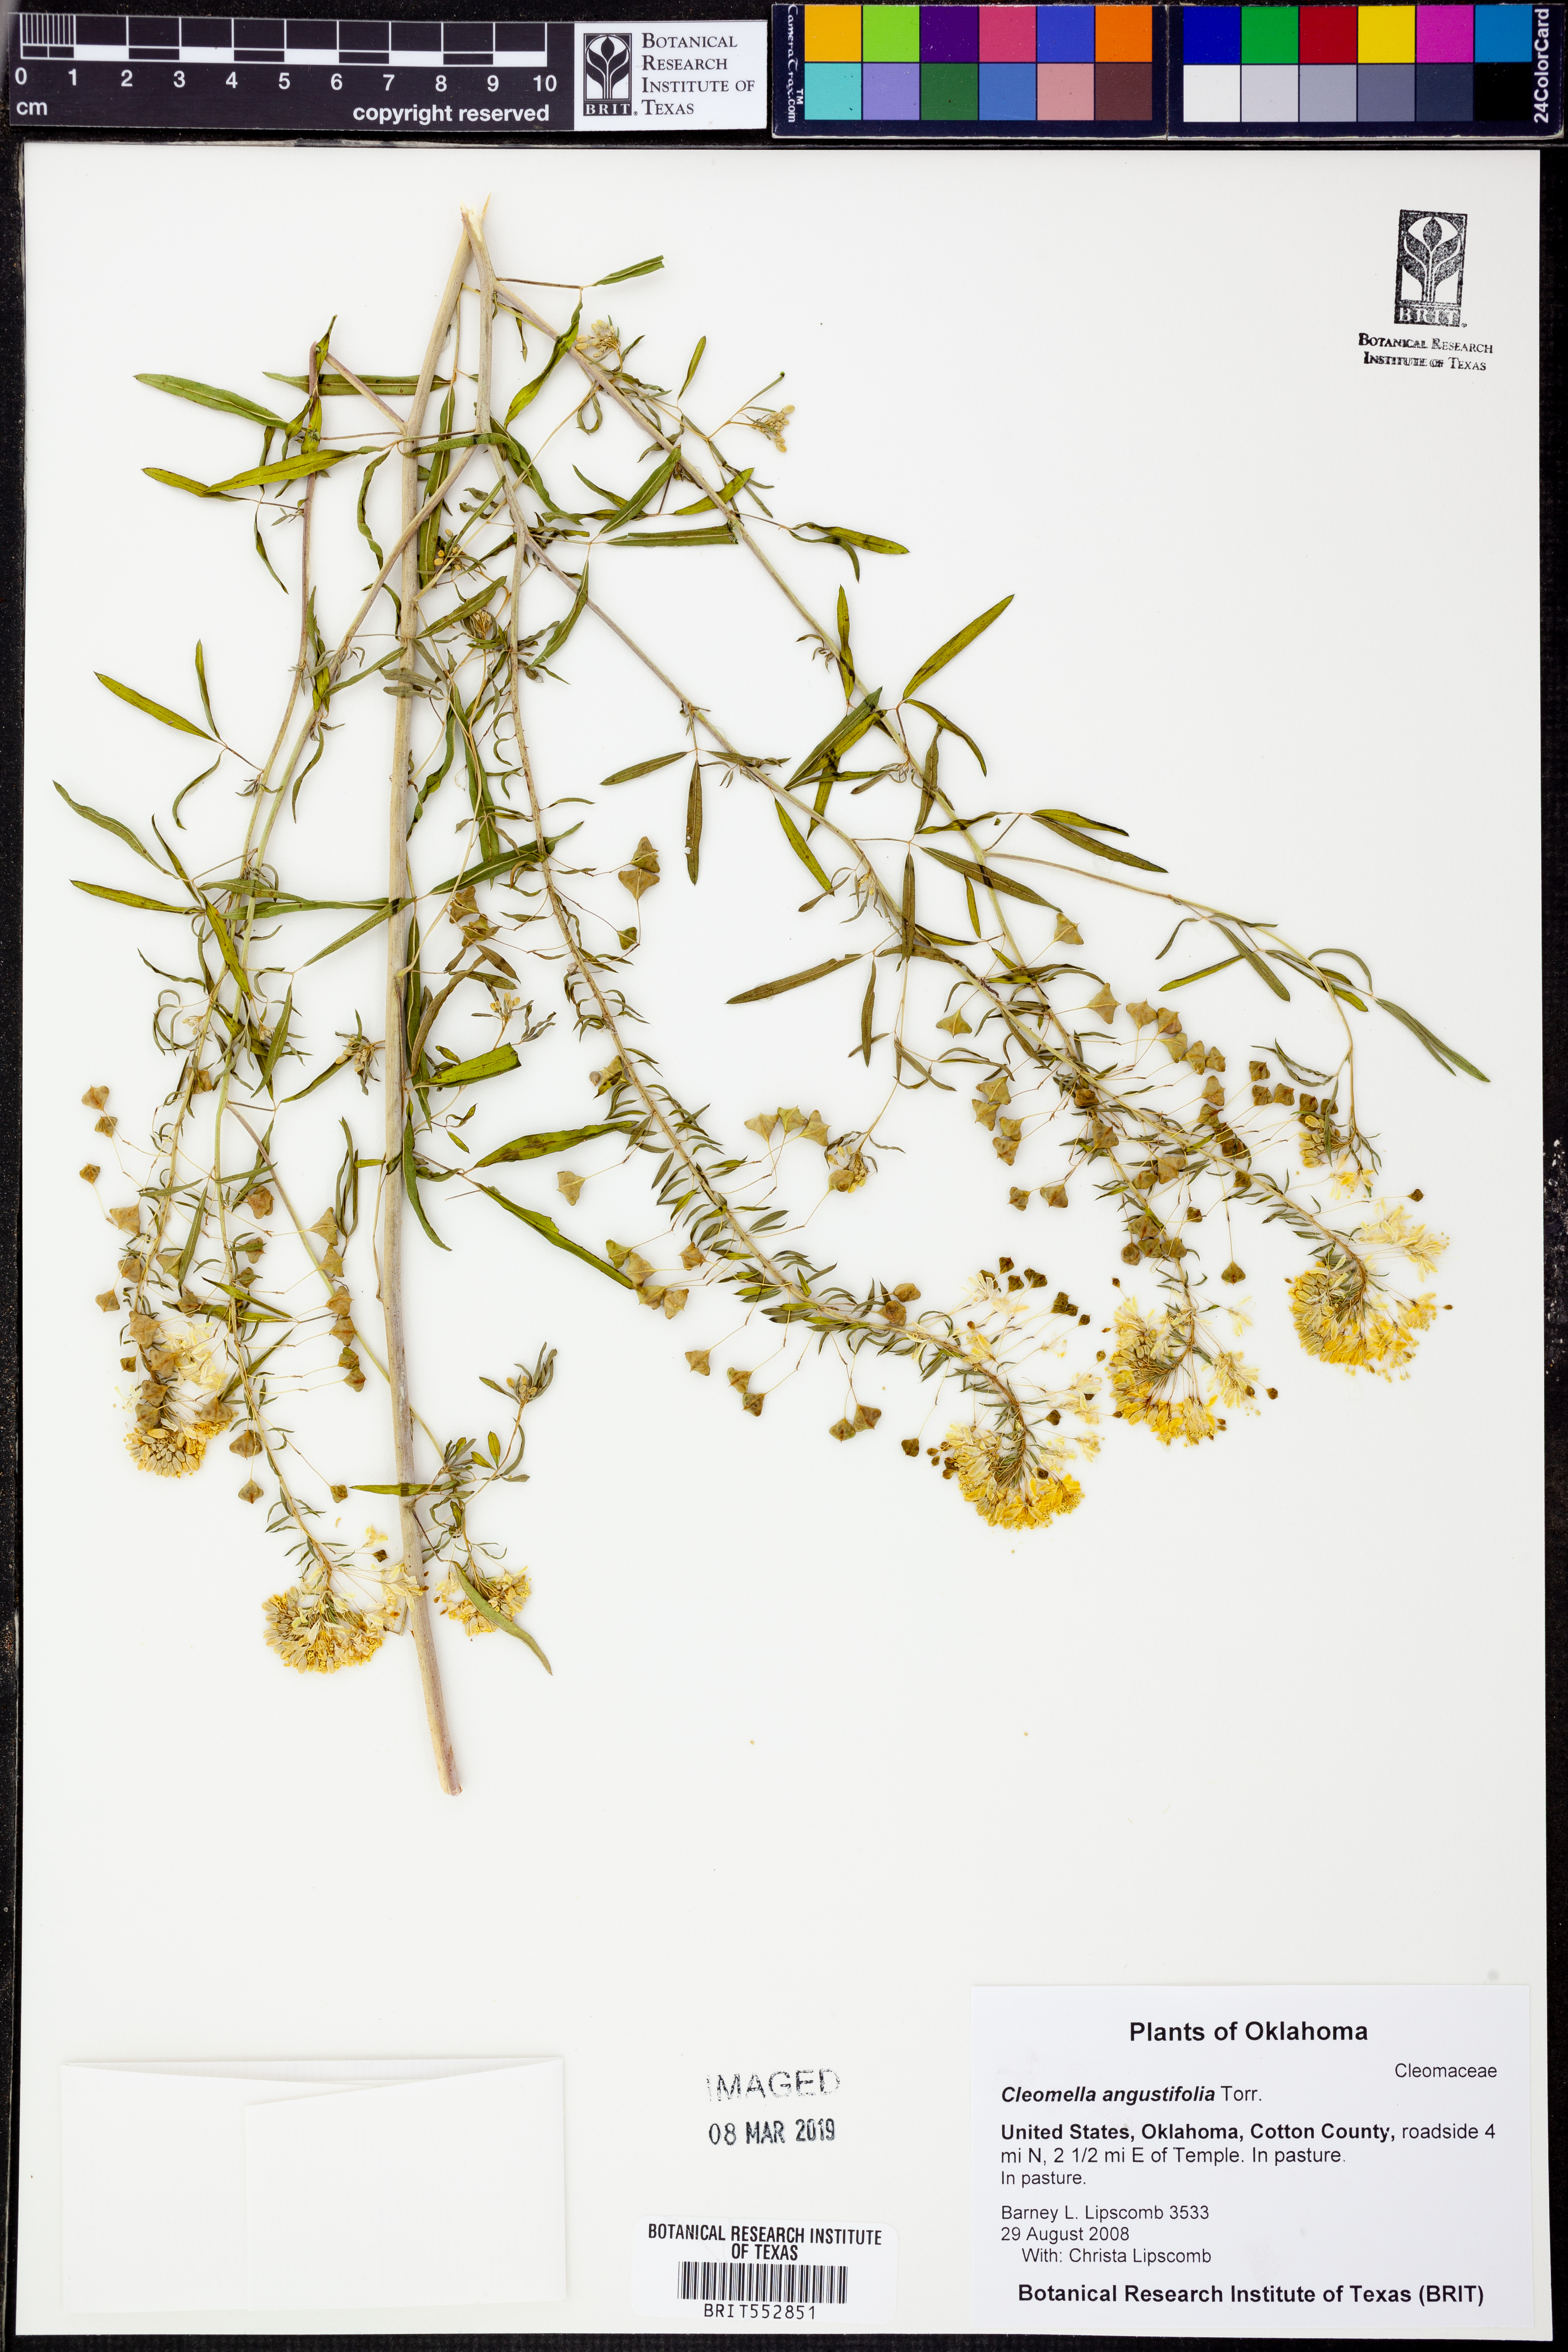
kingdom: Plantae
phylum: Tracheophyta
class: Magnoliopsida
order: Brassicales
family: Cleomaceae
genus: Cleomella
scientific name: Cleomella angustifolia
